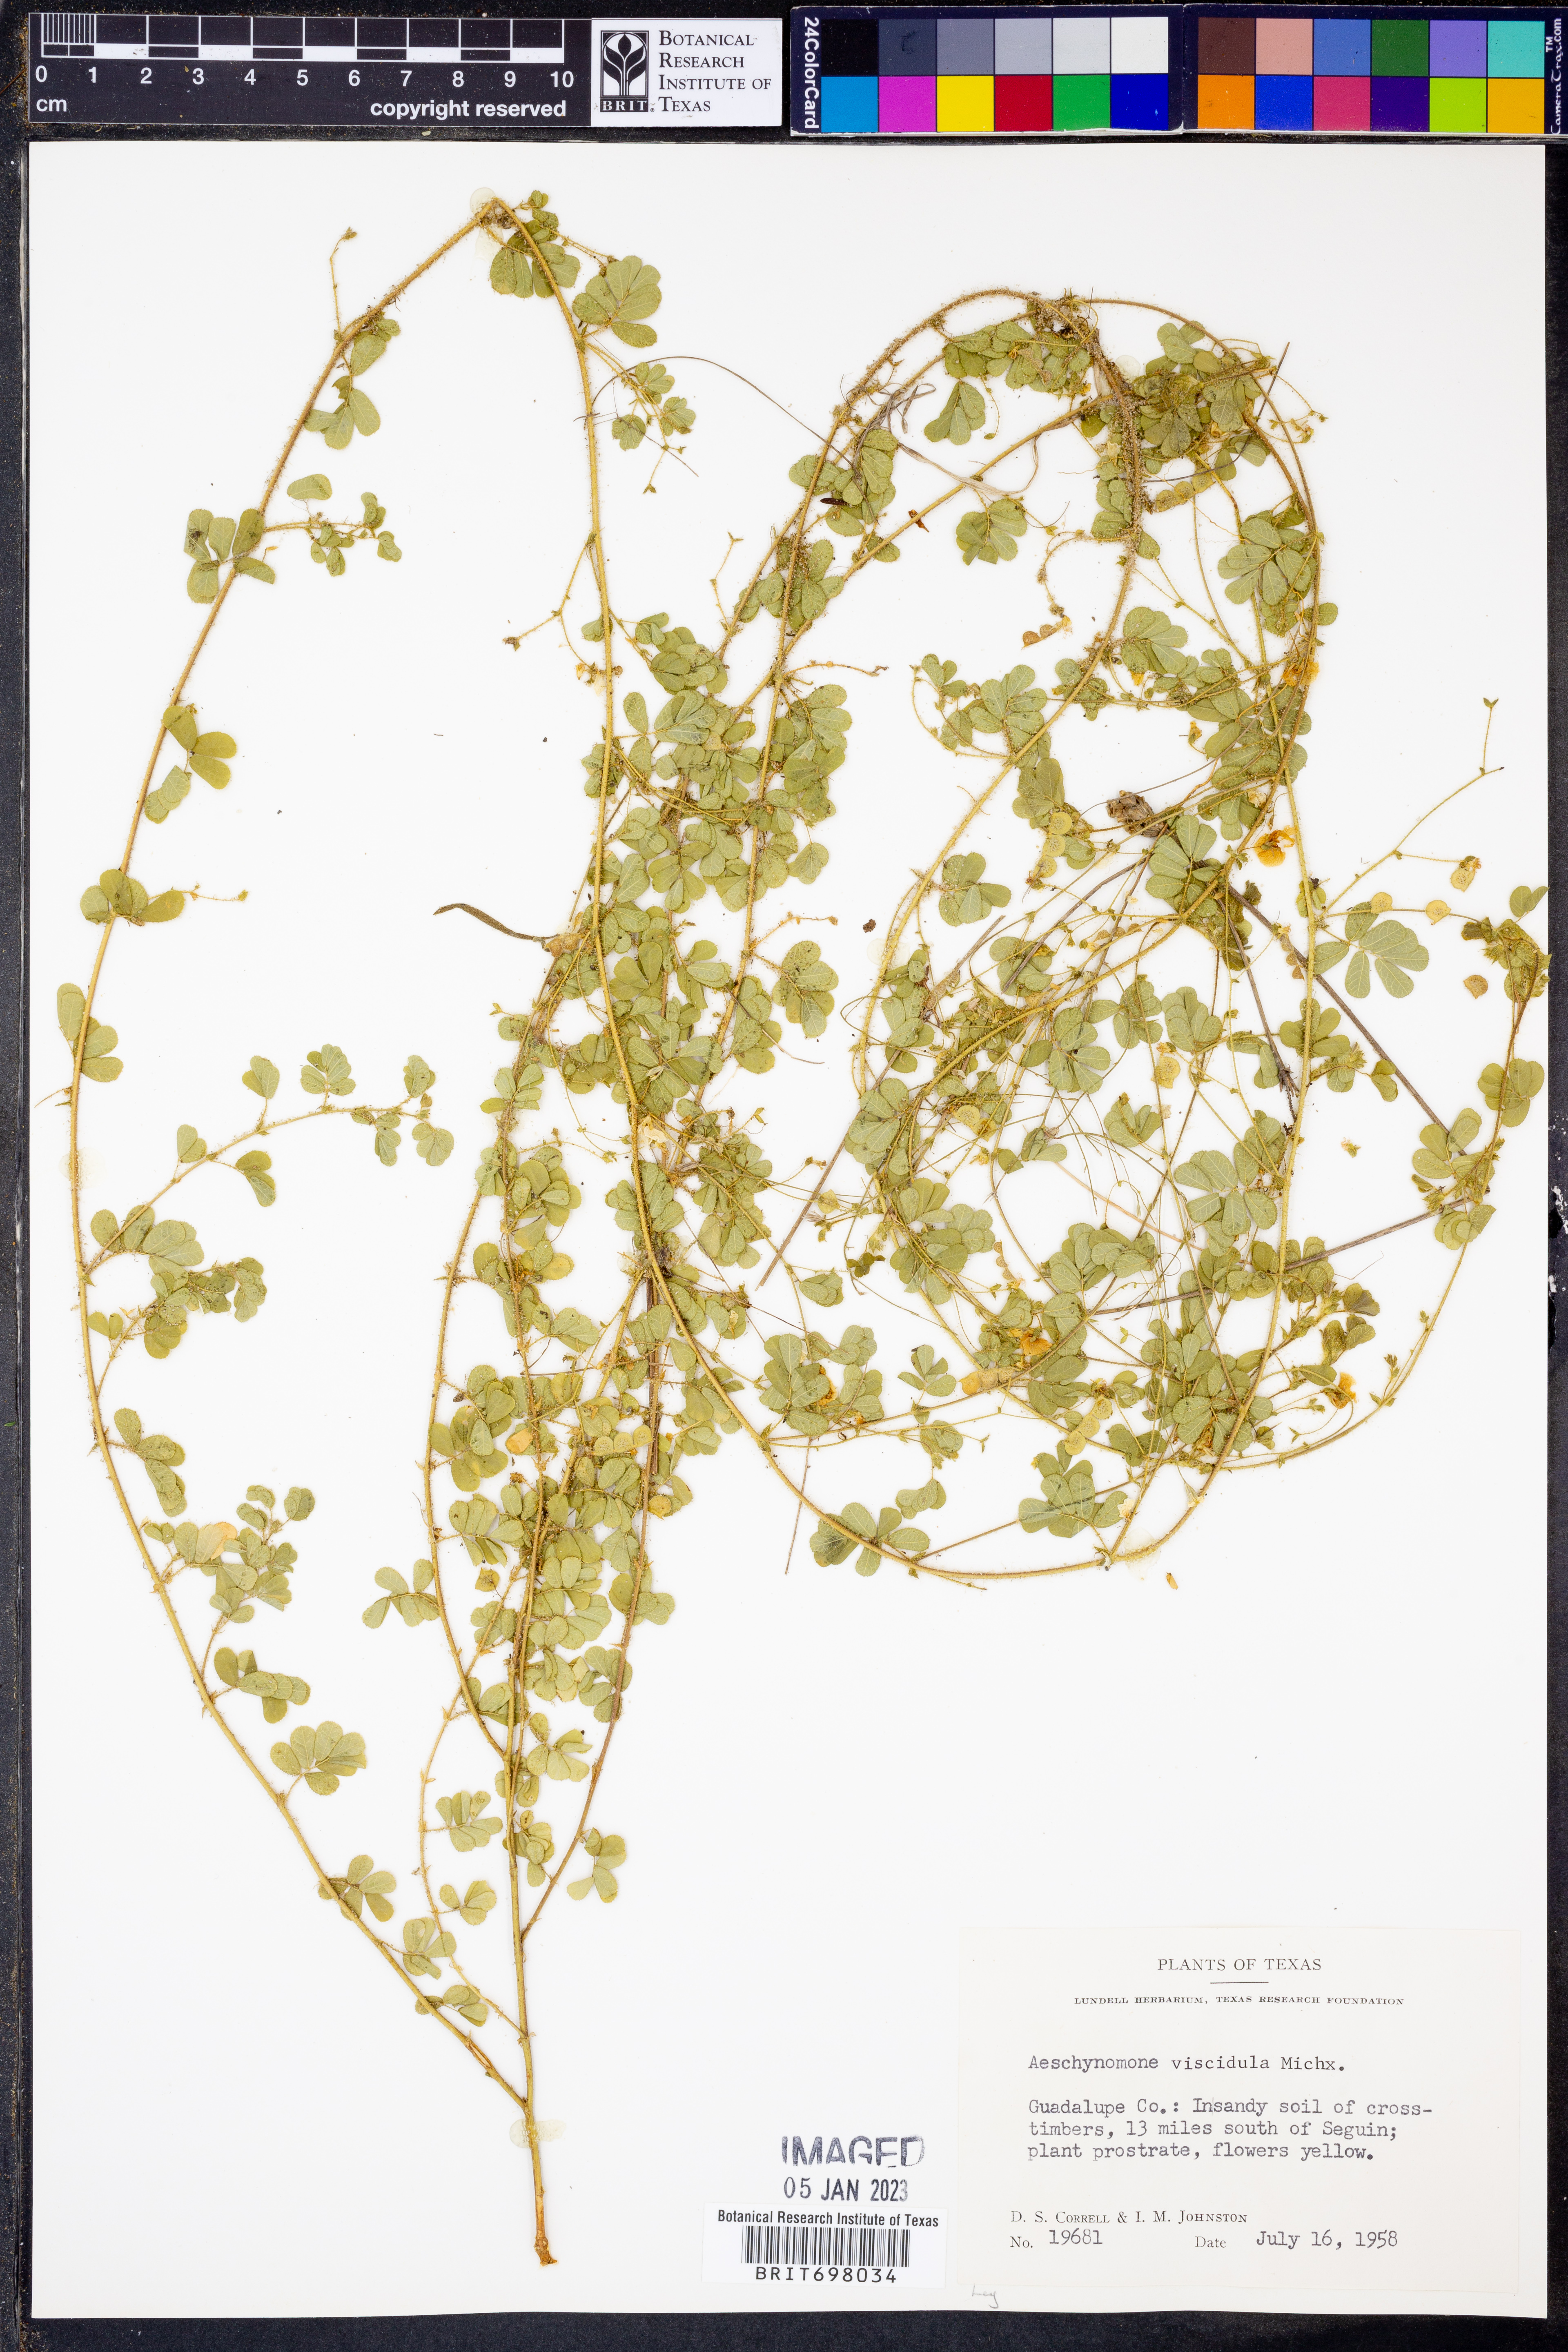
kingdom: Plantae
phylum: Tracheophyta
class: Magnoliopsida
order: Fabales
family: Fabaceae
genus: Aeschynomene
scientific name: Aeschynomene indica
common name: Indian jointvetch
